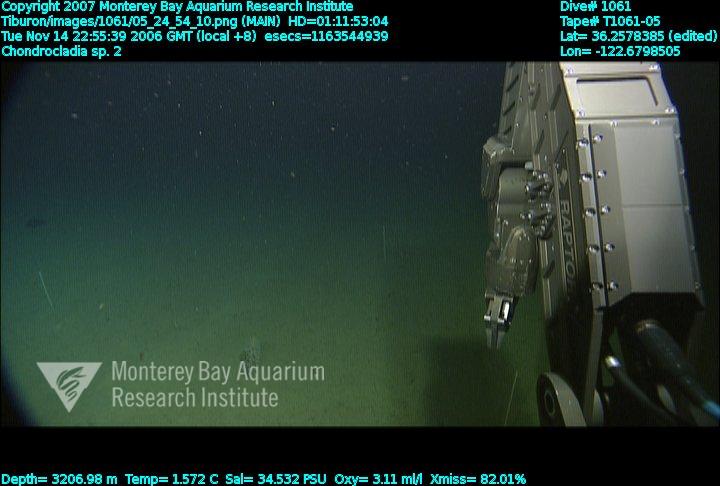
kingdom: Animalia
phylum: Porifera
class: Demospongiae
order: Poecilosclerida
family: Cladorhizidae
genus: Chondrocladia
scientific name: Chondrocladia
